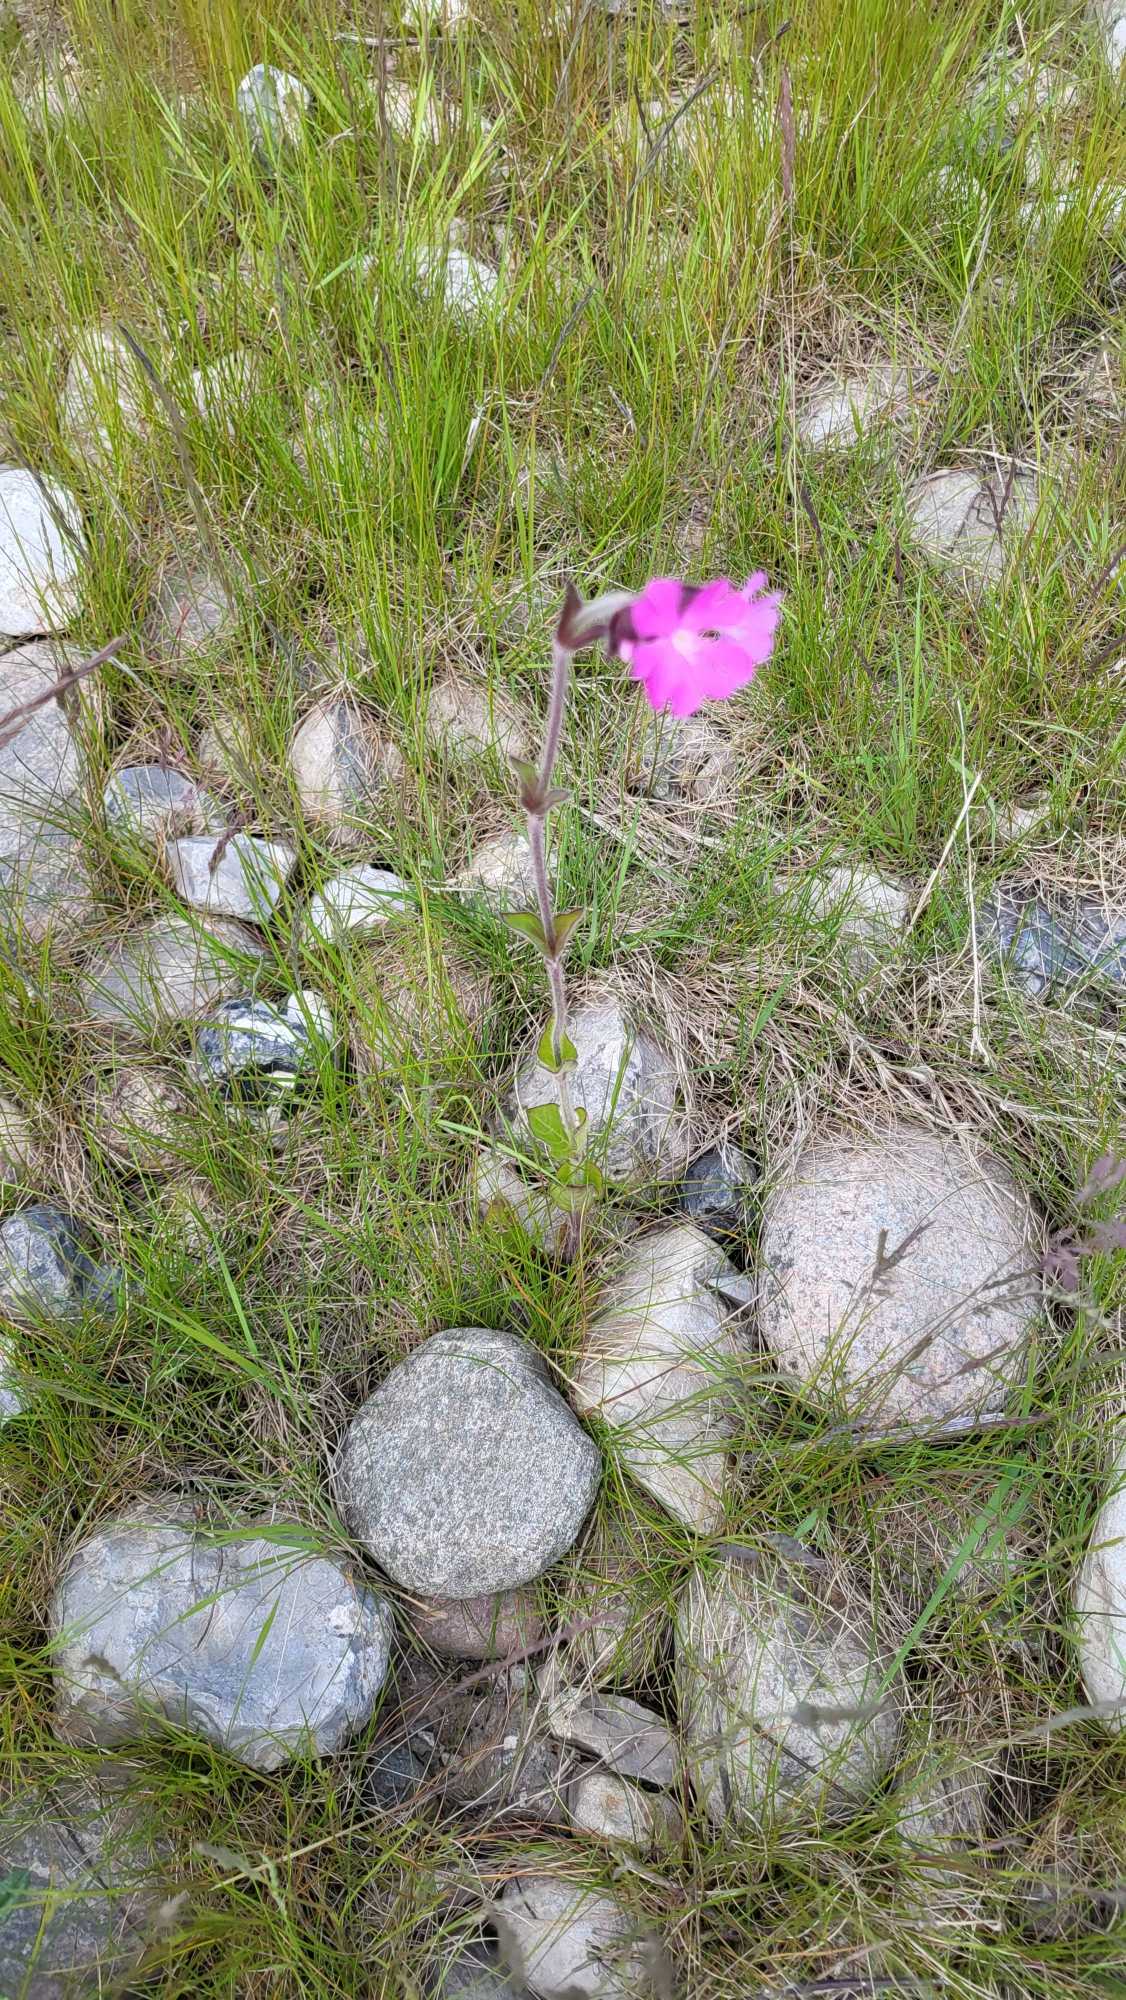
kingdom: Plantae
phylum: Tracheophyta
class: Magnoliopsida
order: Caryophyllales
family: Caryophyllaceae
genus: Silene
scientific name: Silene dioica
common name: Dagpragtstjerne
